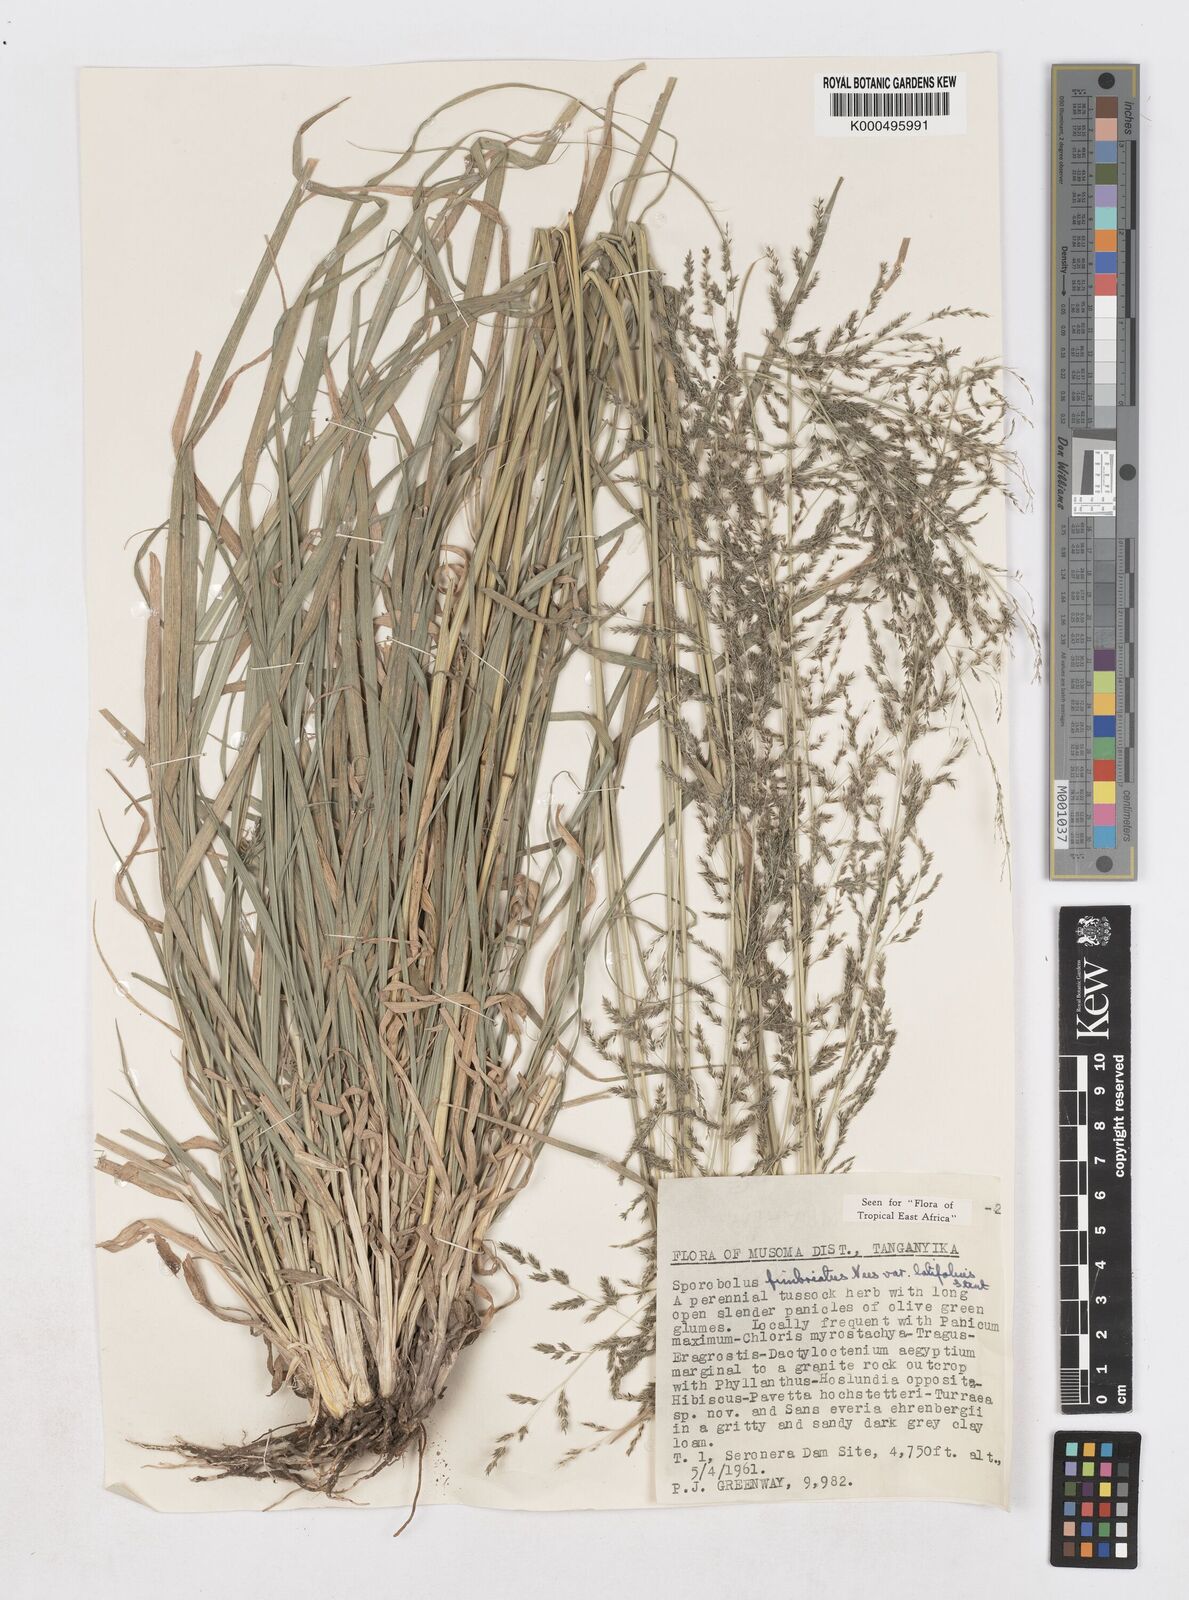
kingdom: Plantae
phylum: Tracheophyta
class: Liliopsida
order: Poales
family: Poaceae
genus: Sporobolus
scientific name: Sporobolus fimbriatus
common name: Fringed dropseed
